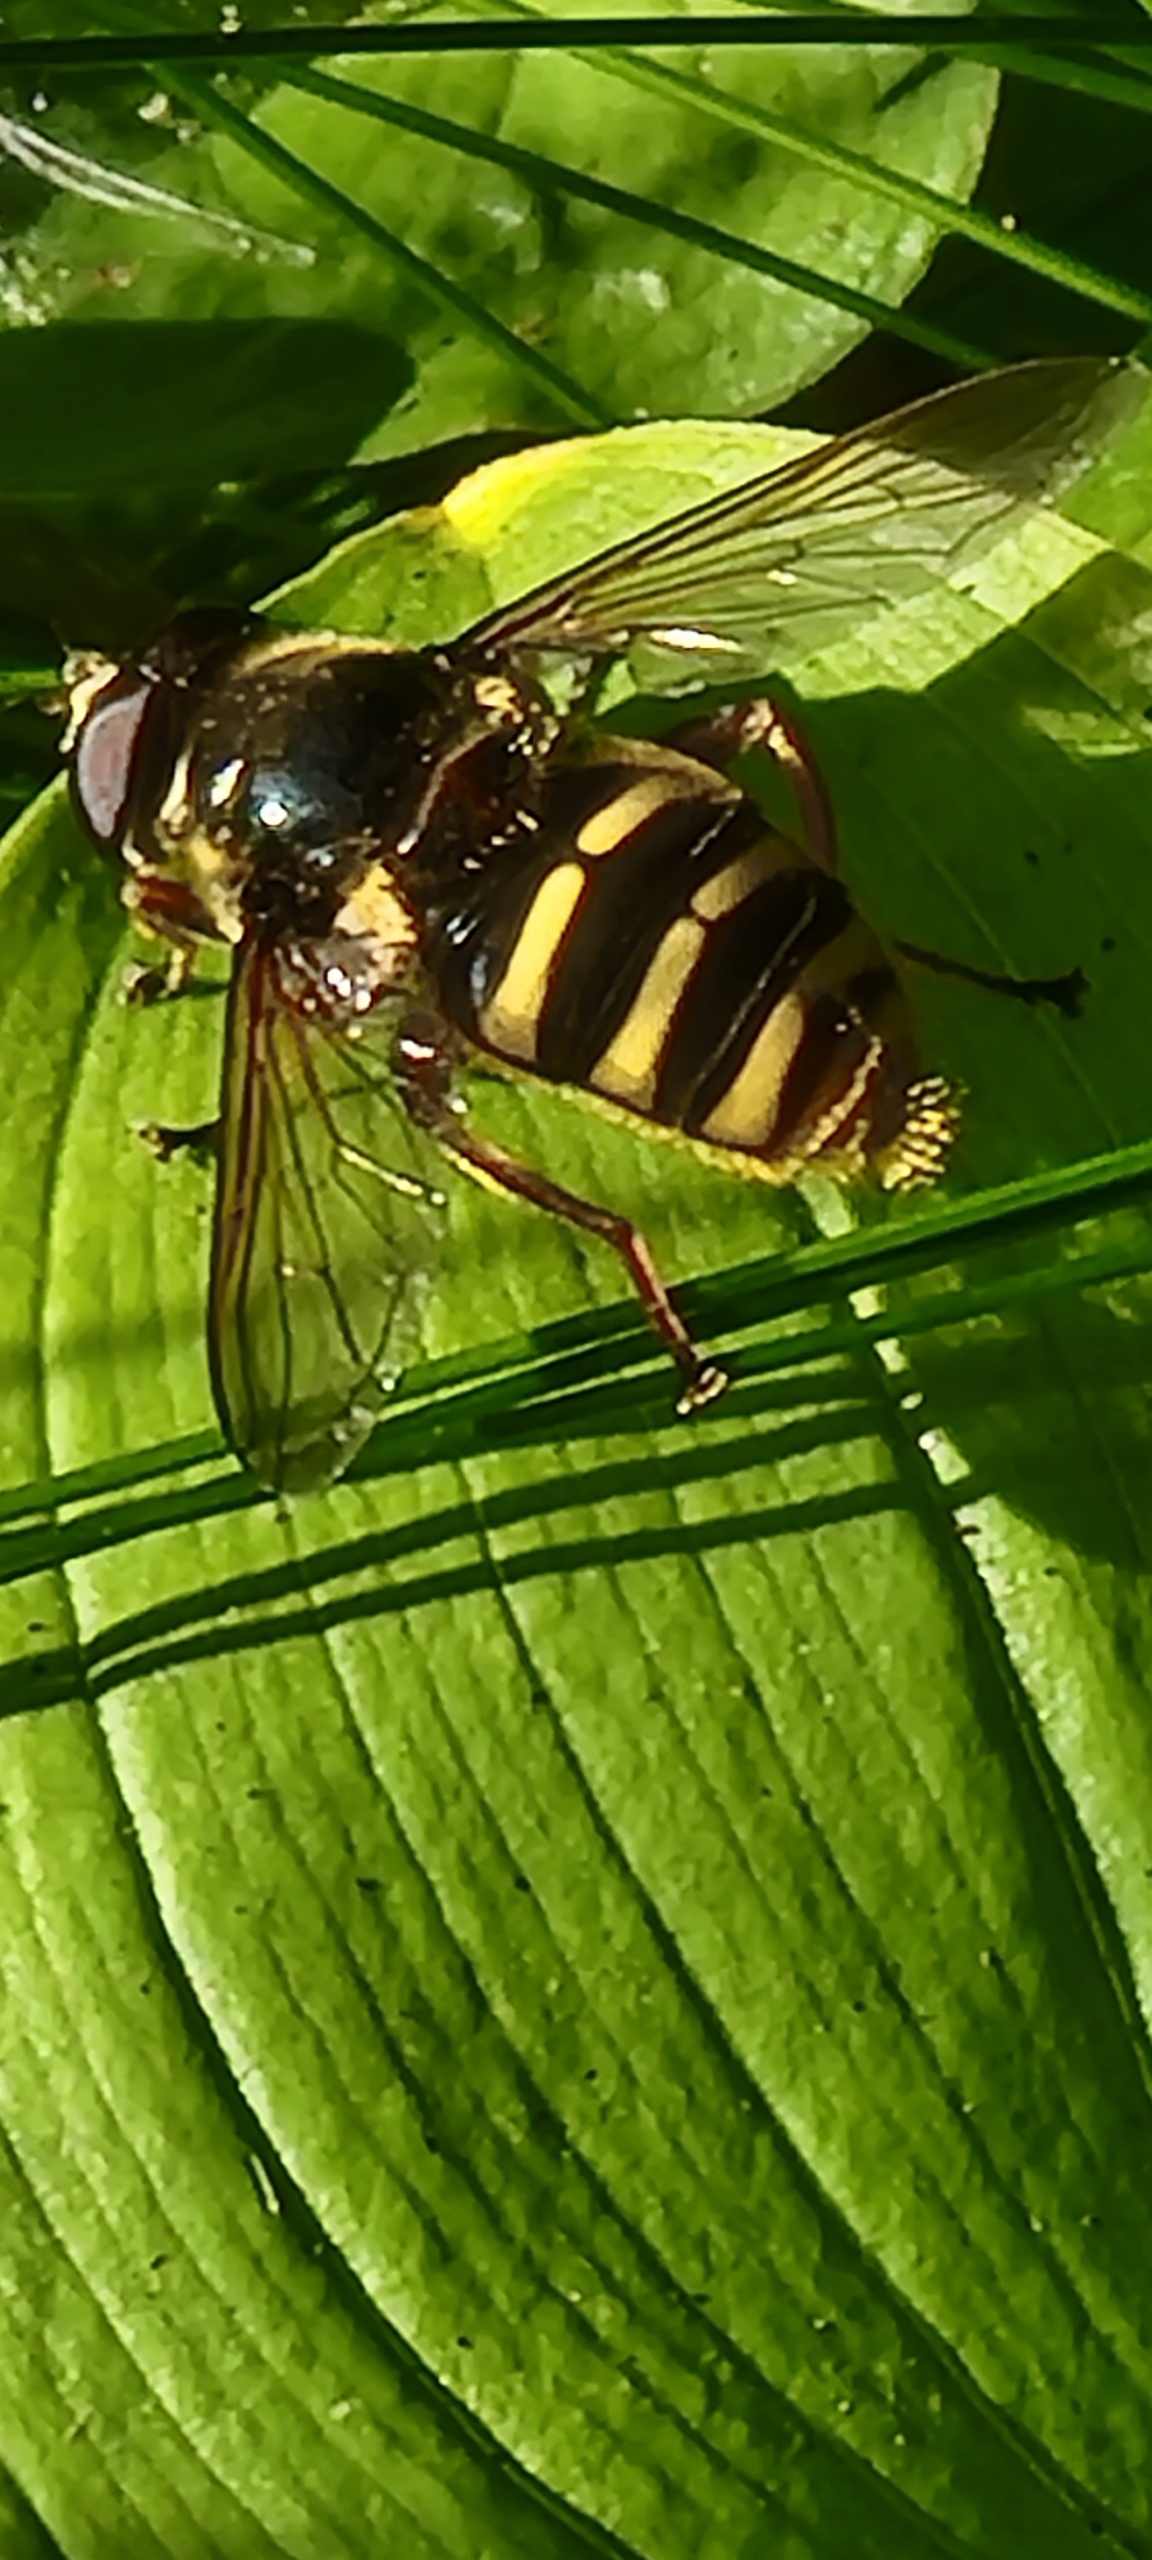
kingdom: Animalia
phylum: Arthropoda
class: Insecta
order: Diptera
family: Syrphidae
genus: Sericomyia
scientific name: Sericomyia silentis
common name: Tørve-silkesvirreflue
